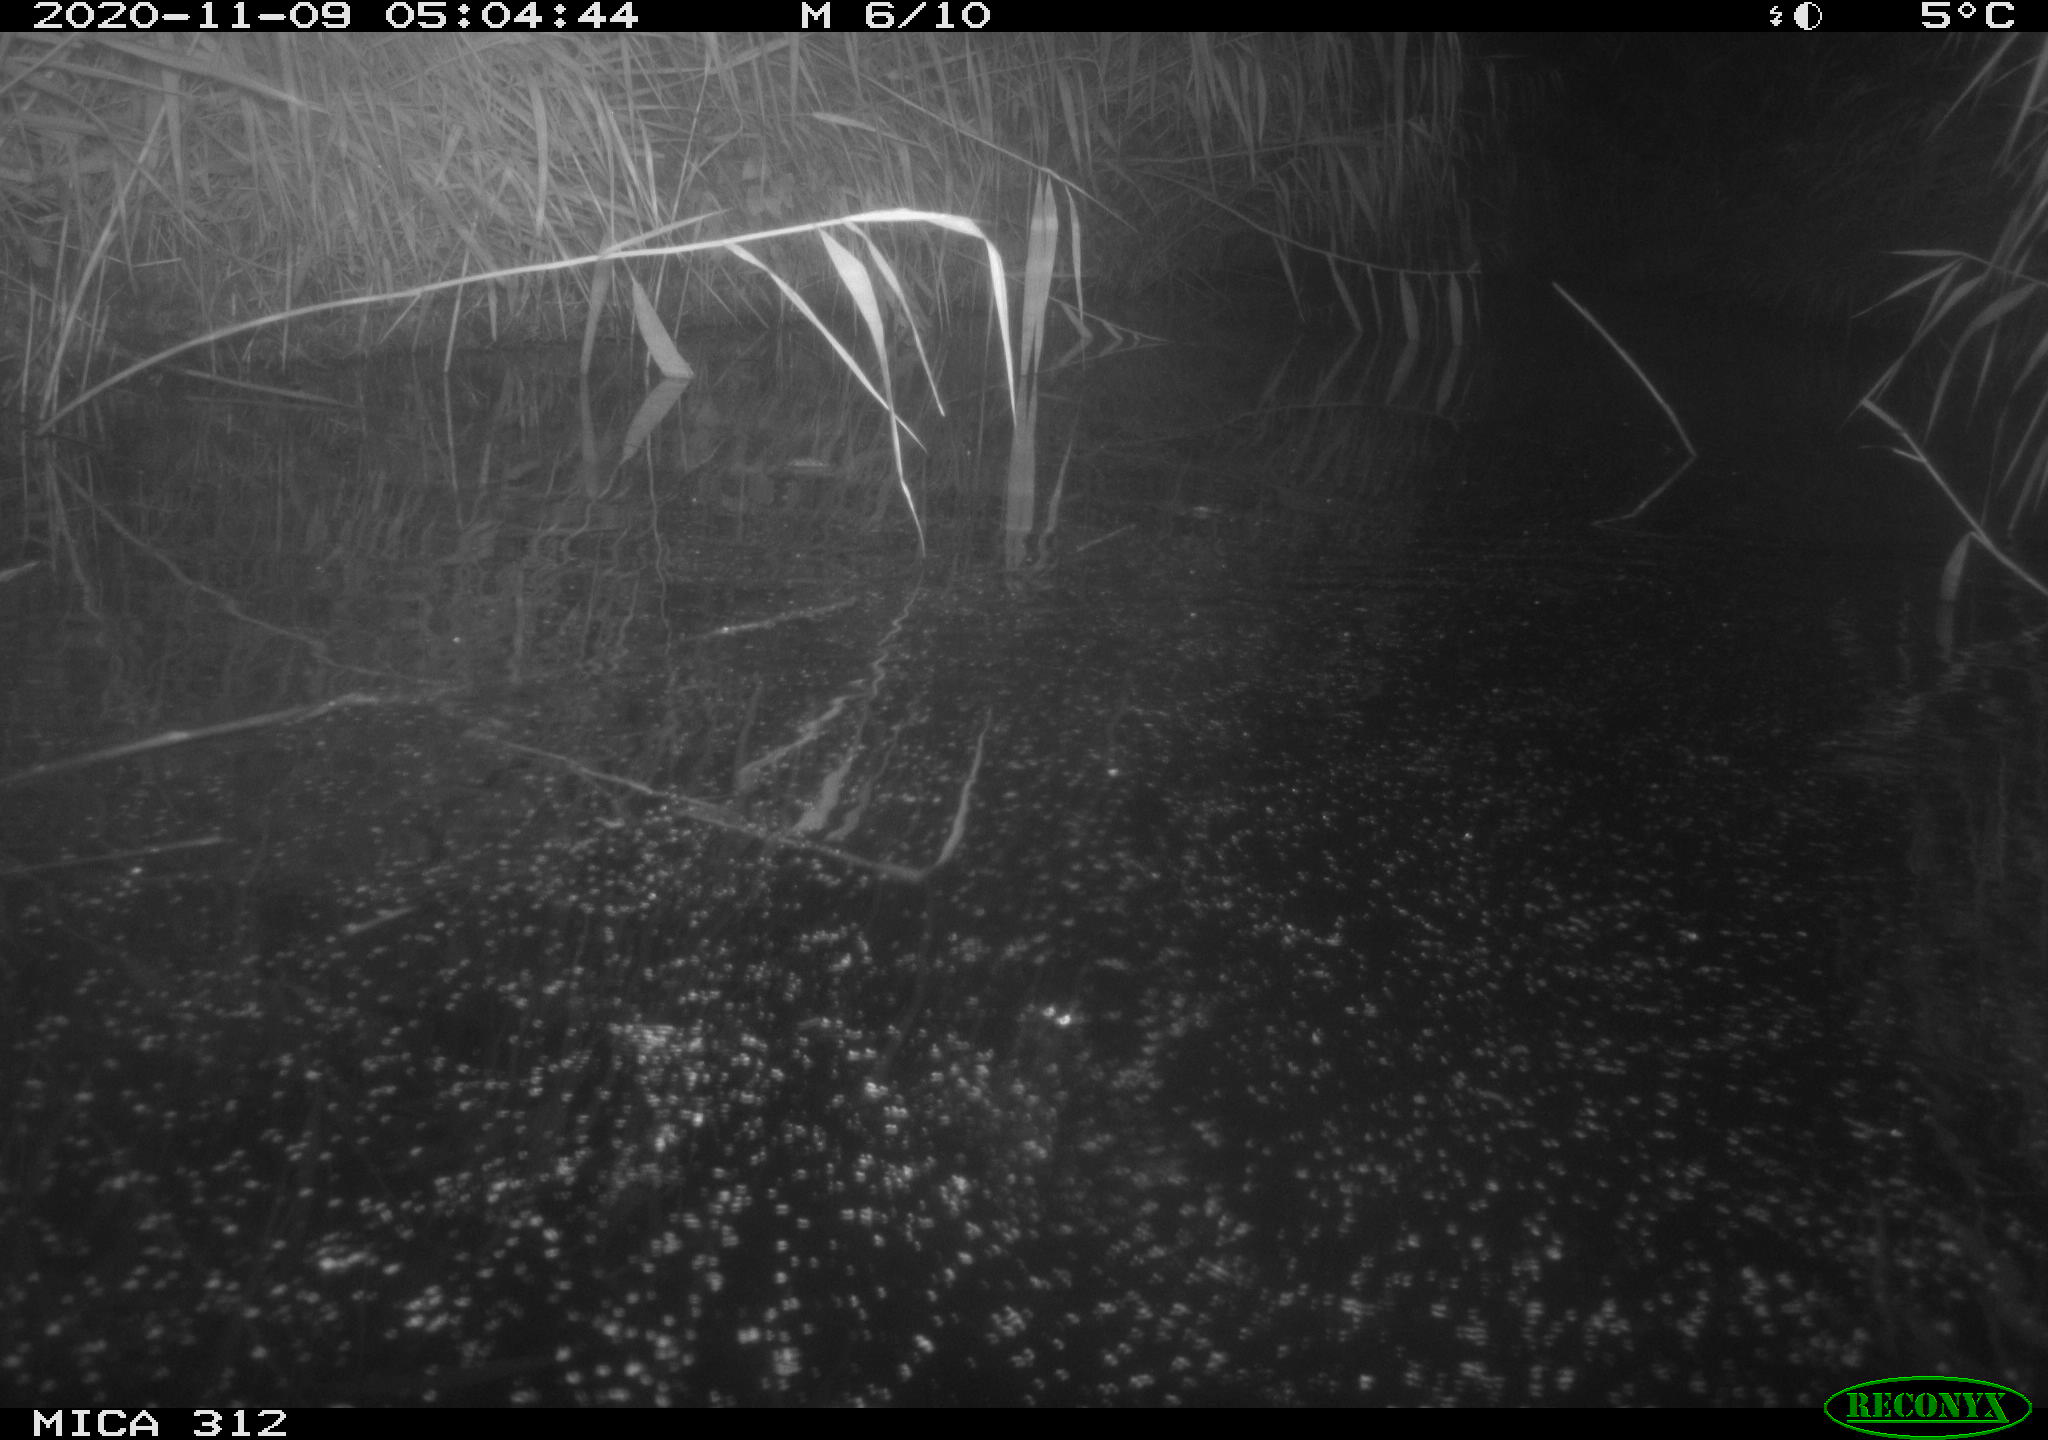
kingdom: Animalia
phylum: Chordata
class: Mammalia
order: Rodentia
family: Muridae
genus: Rattus
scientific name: Rattus norvegicus
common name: Brown rat
